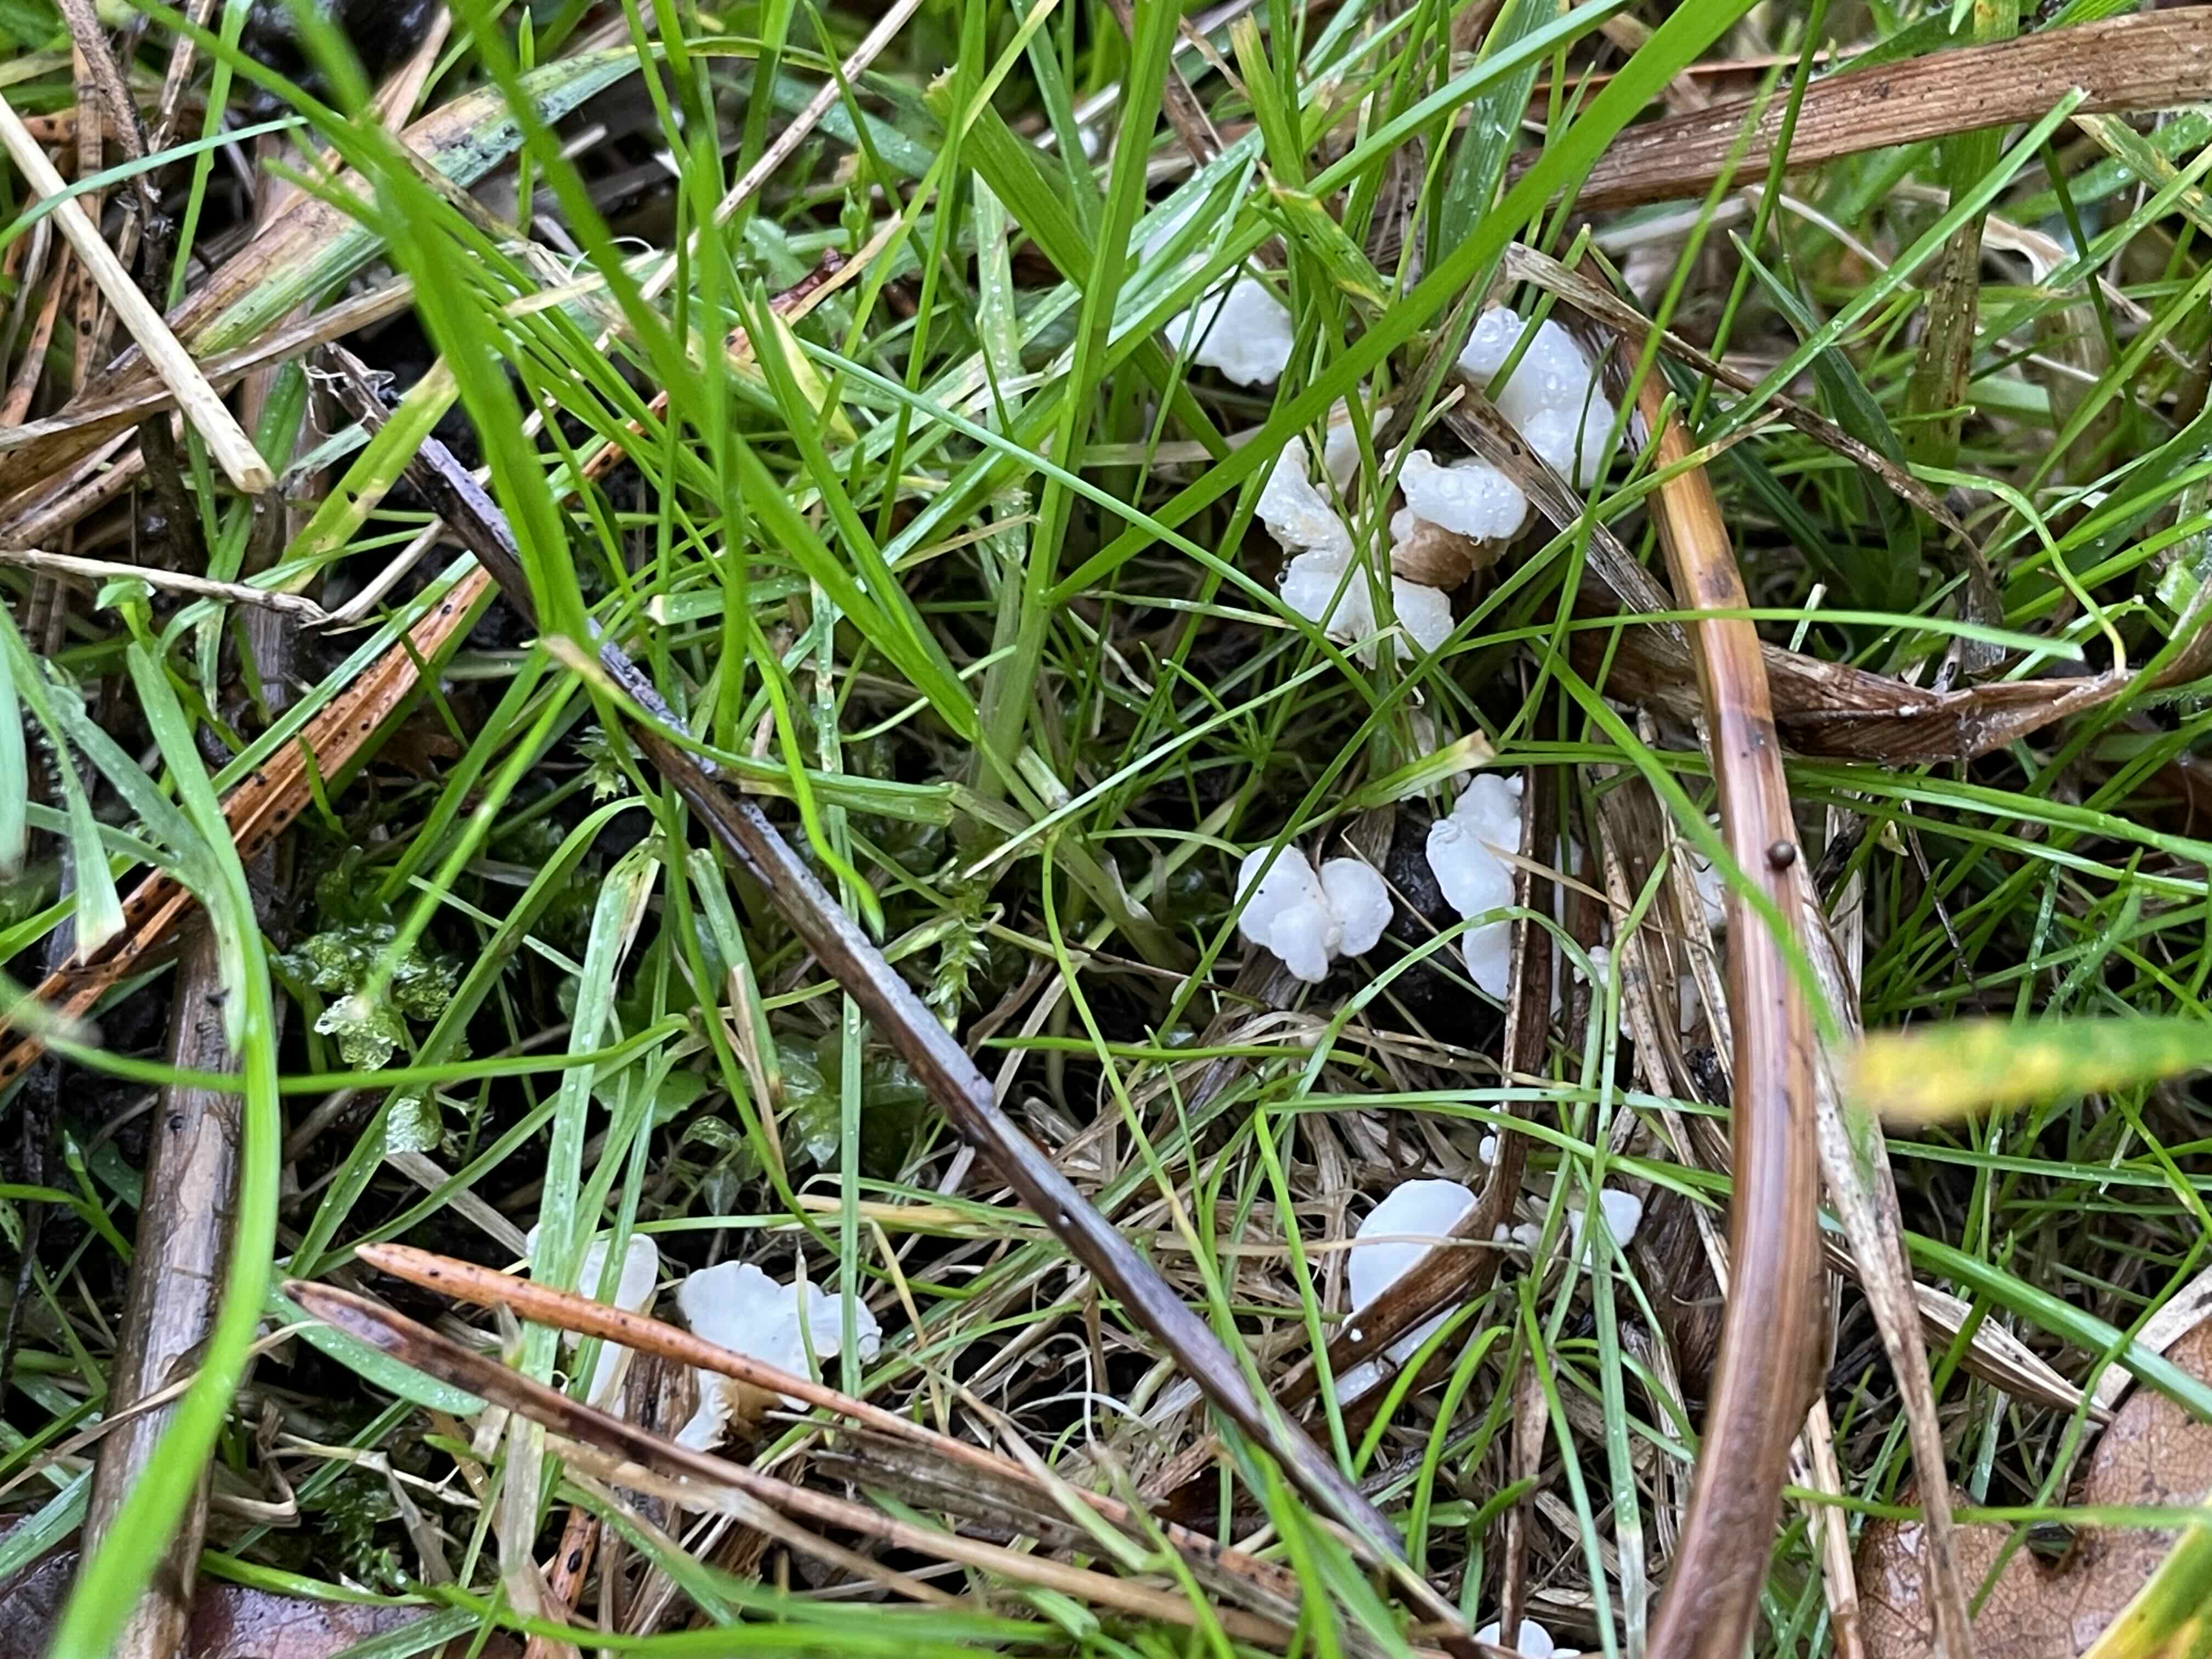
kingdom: Fungi
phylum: Basidiomycota
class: Agaricomycetes
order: Agaricales
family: Crepidotaceae
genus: Crepidotus
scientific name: Crepidotus epibryus
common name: førne-muslingesvamp
